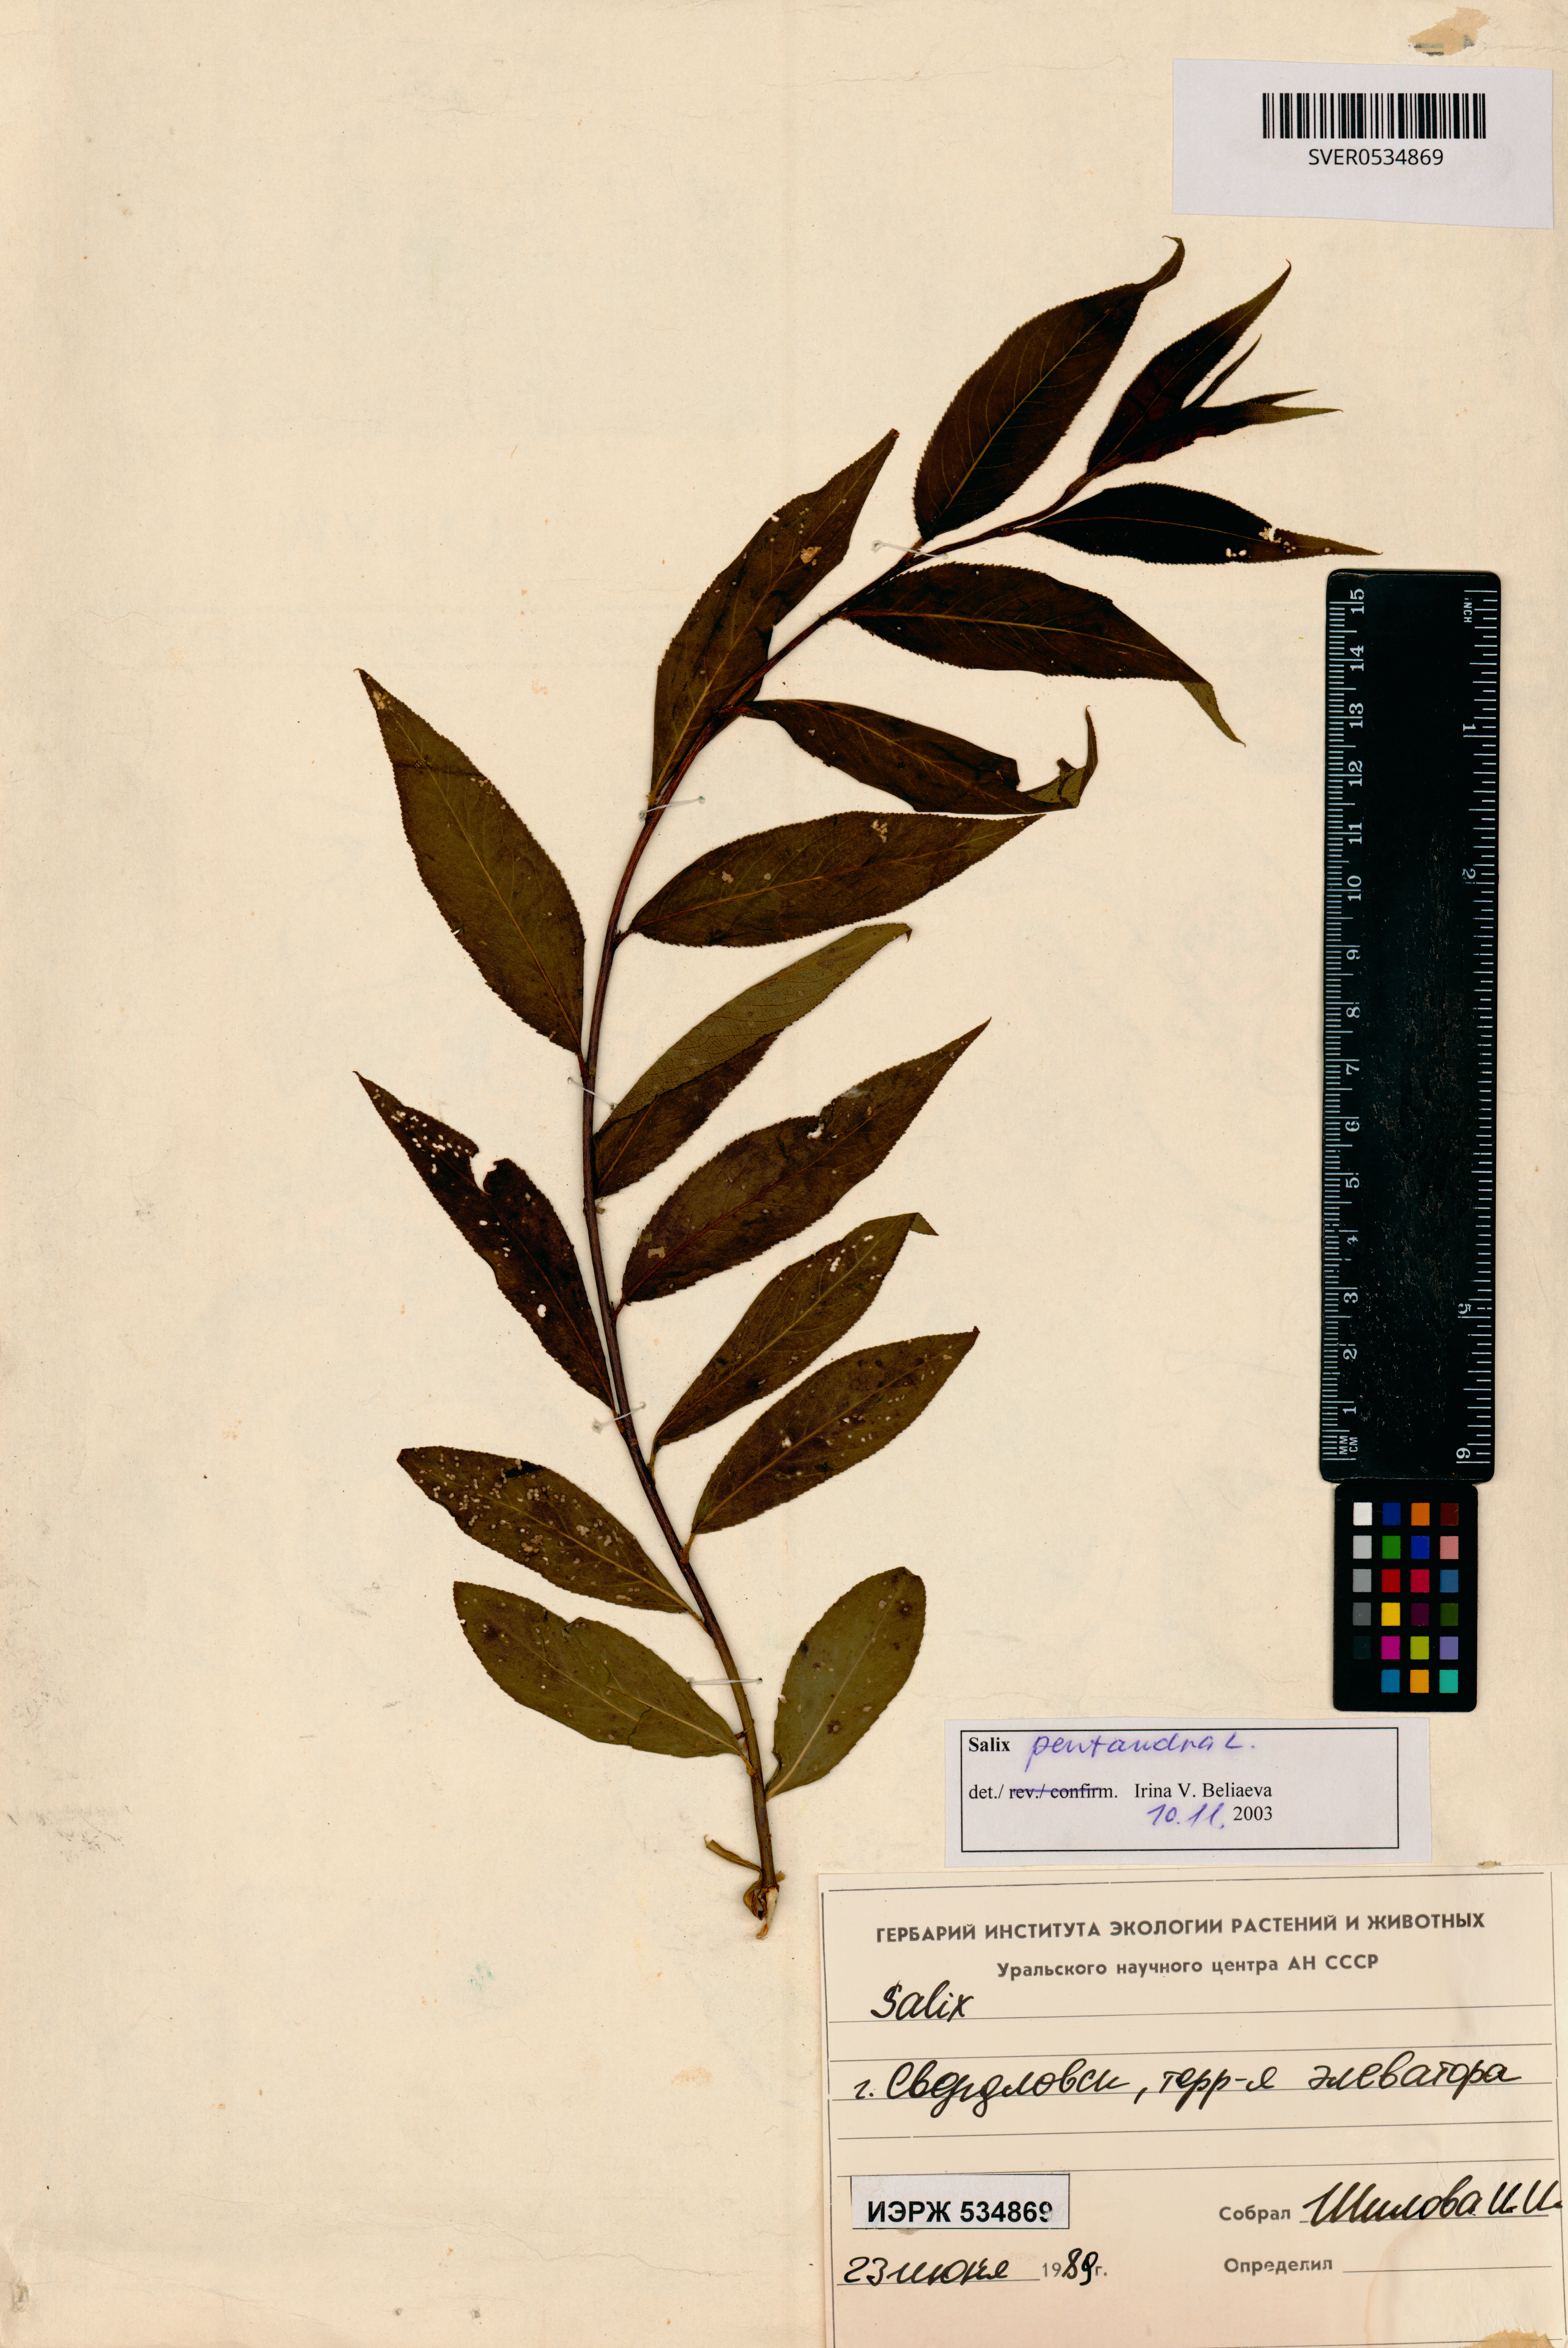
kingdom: Plantae
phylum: Tracheophyta
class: Magnoliopsida
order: Malpighiales
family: Salicaceae
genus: Salix
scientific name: Salix pentandra
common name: Bay willow
